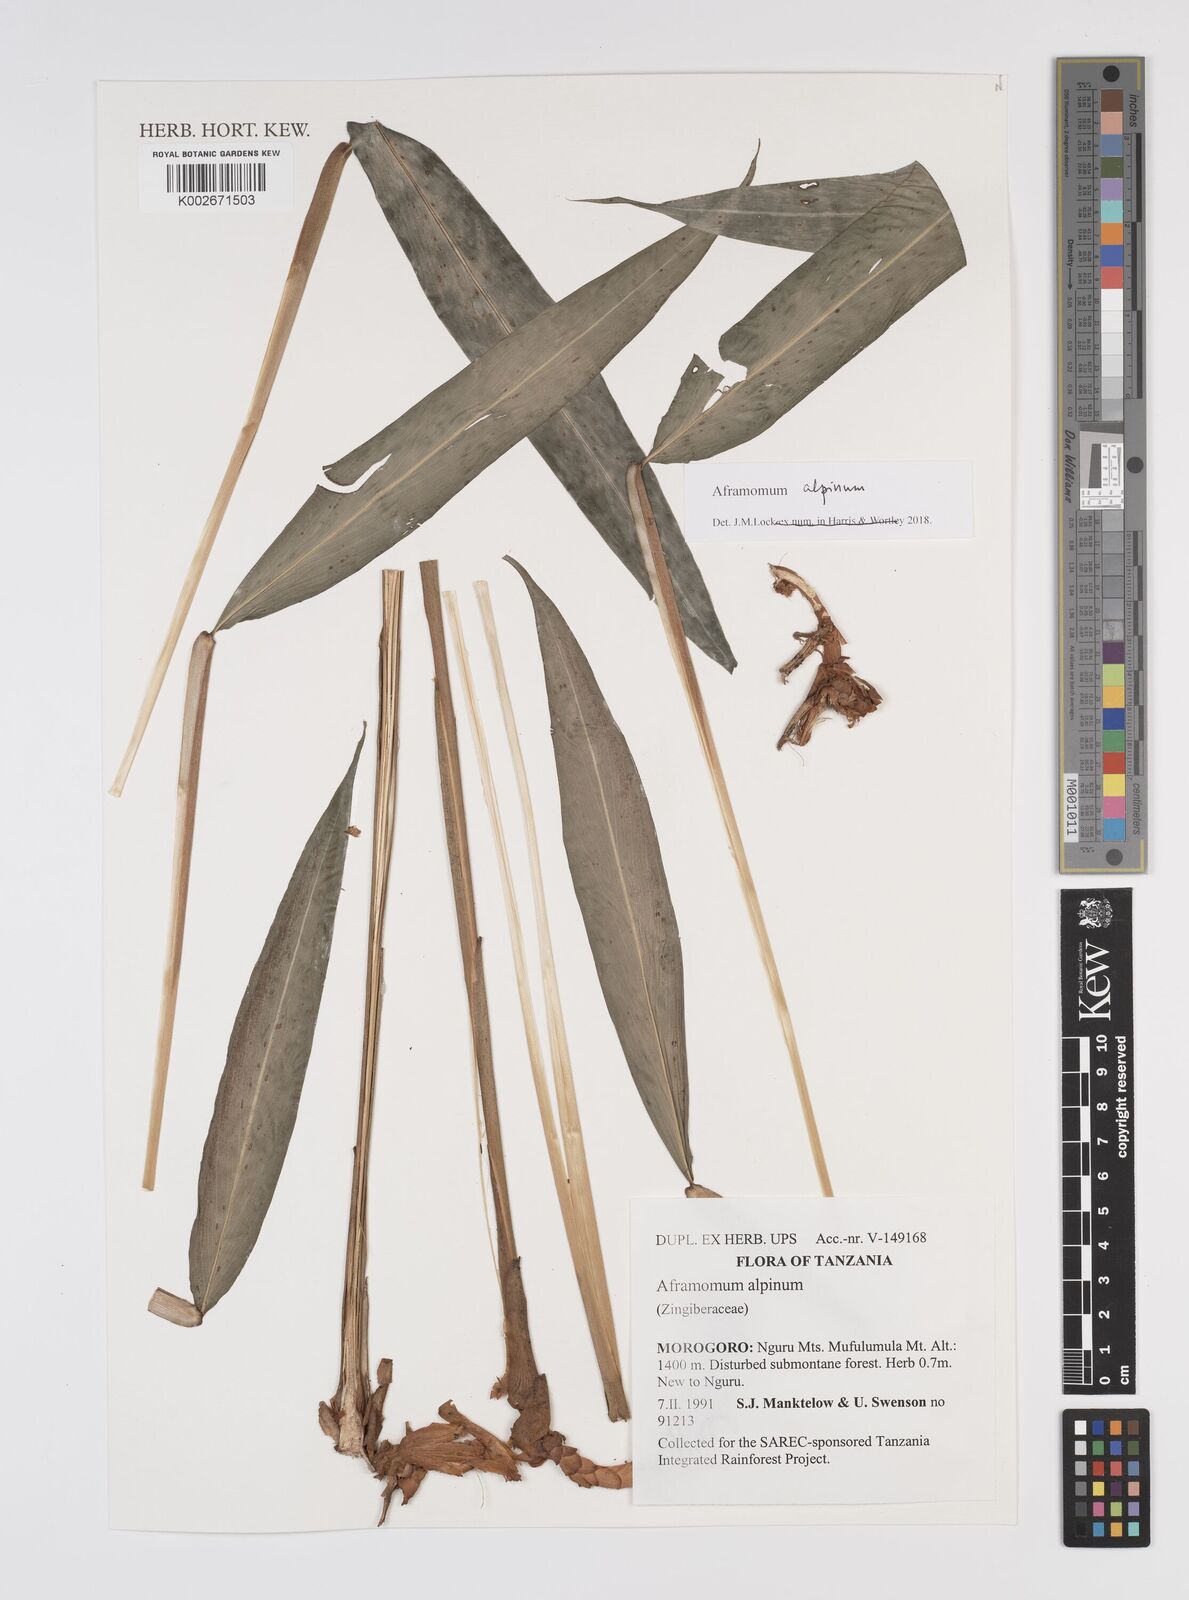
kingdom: Plantae
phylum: Tracheophyta
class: Liliopsida
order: Zingiberales
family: Zingiberaceae
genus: Aframomum
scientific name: Aframomum alpinum
